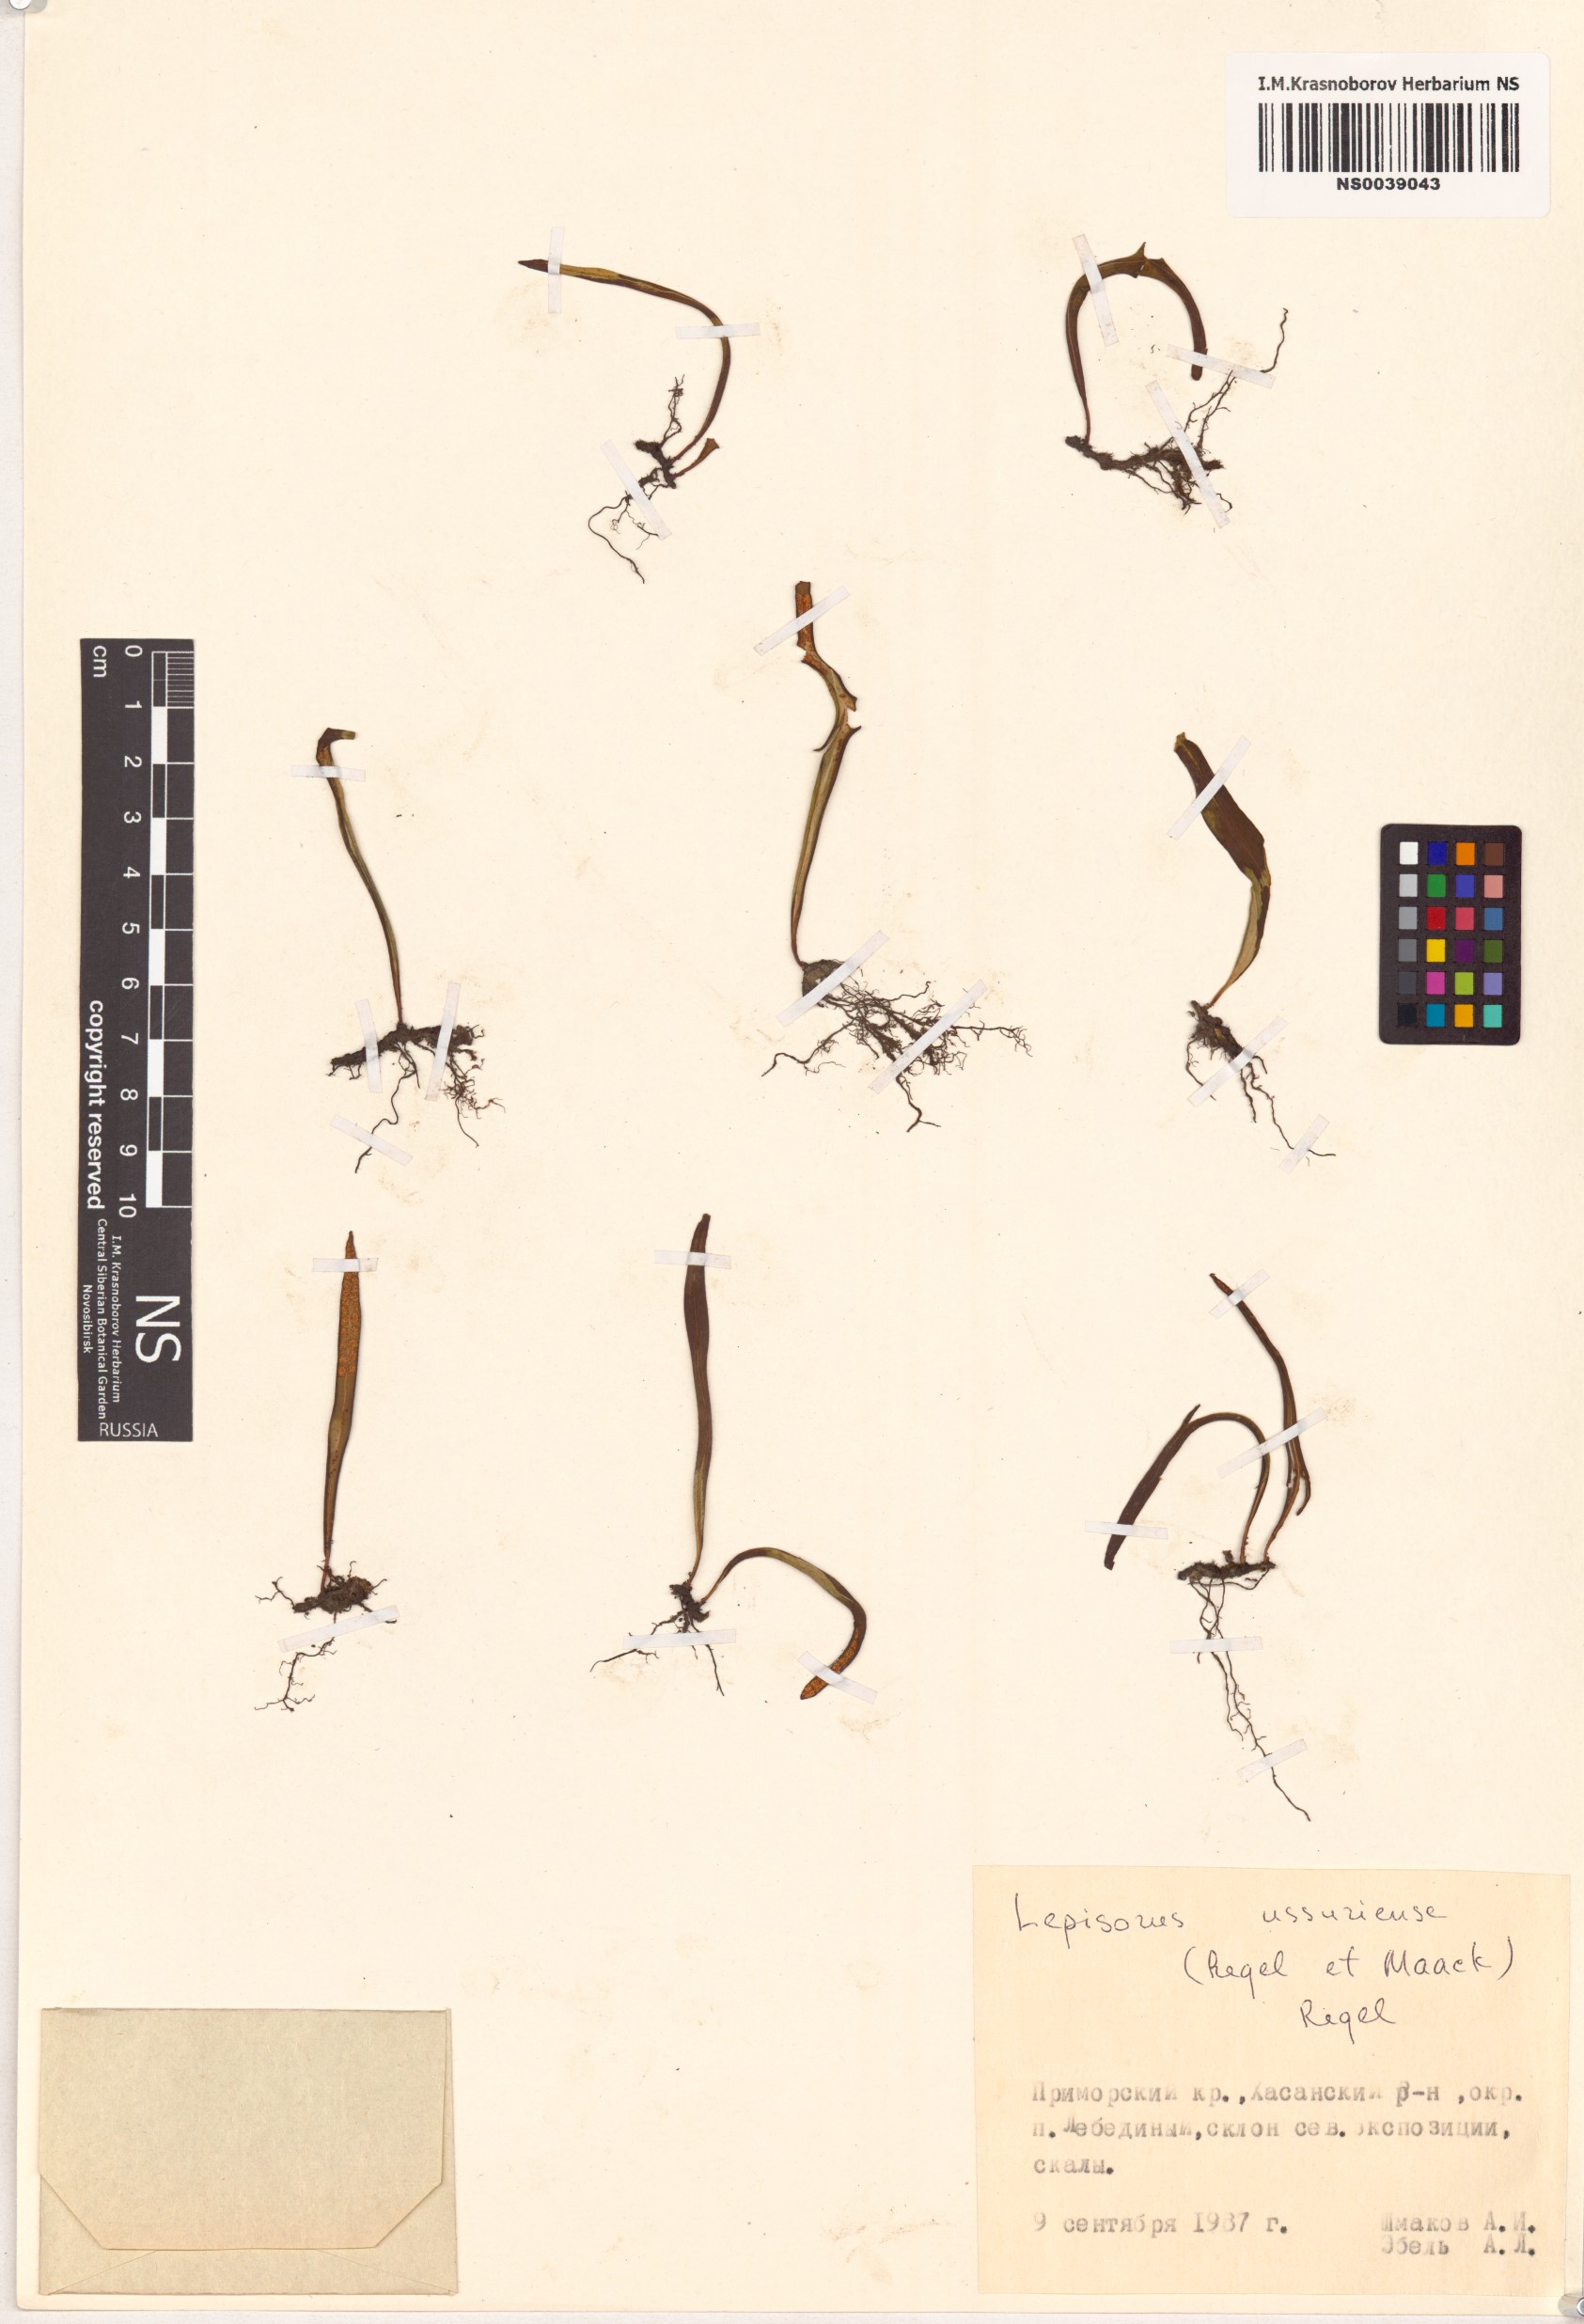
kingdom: Plantae
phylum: Tracheophyta
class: Polypodiopsida
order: Polypodiales
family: Polypodiaceae
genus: Lepisorus
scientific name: Lepisorus ussuriensis
